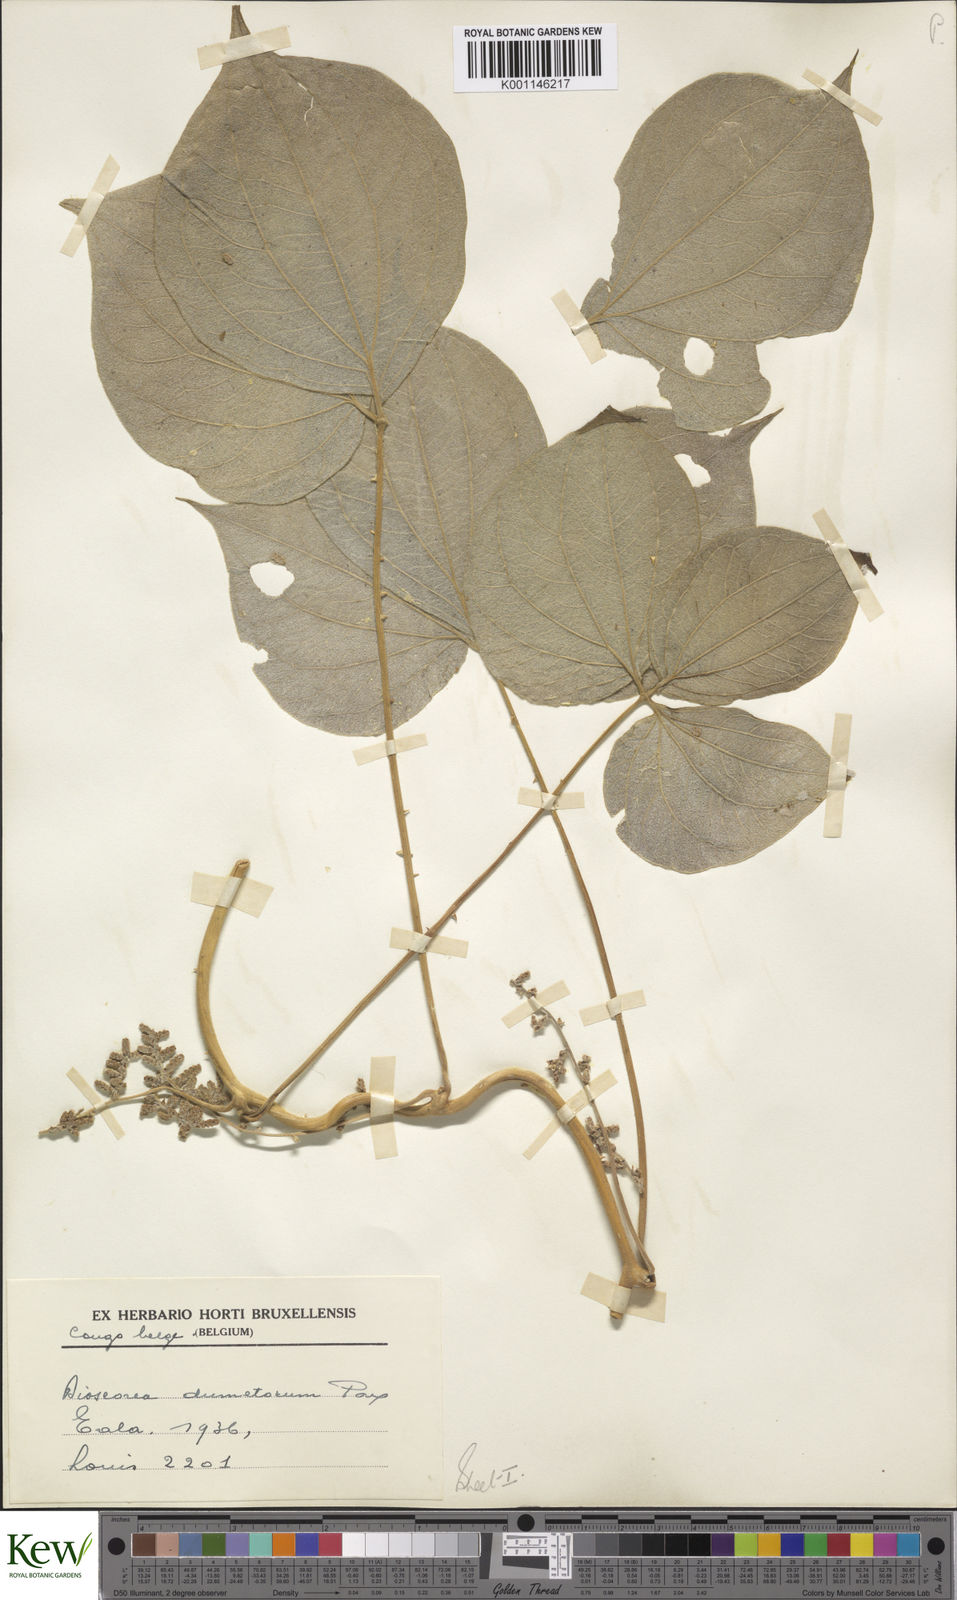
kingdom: Plantae
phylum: Tracheophyta
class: Liliopsida
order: Dioscoreales
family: Dioscoreaceae
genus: Dioscorea
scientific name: Dioscorea dumetorum
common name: African bitter yam
